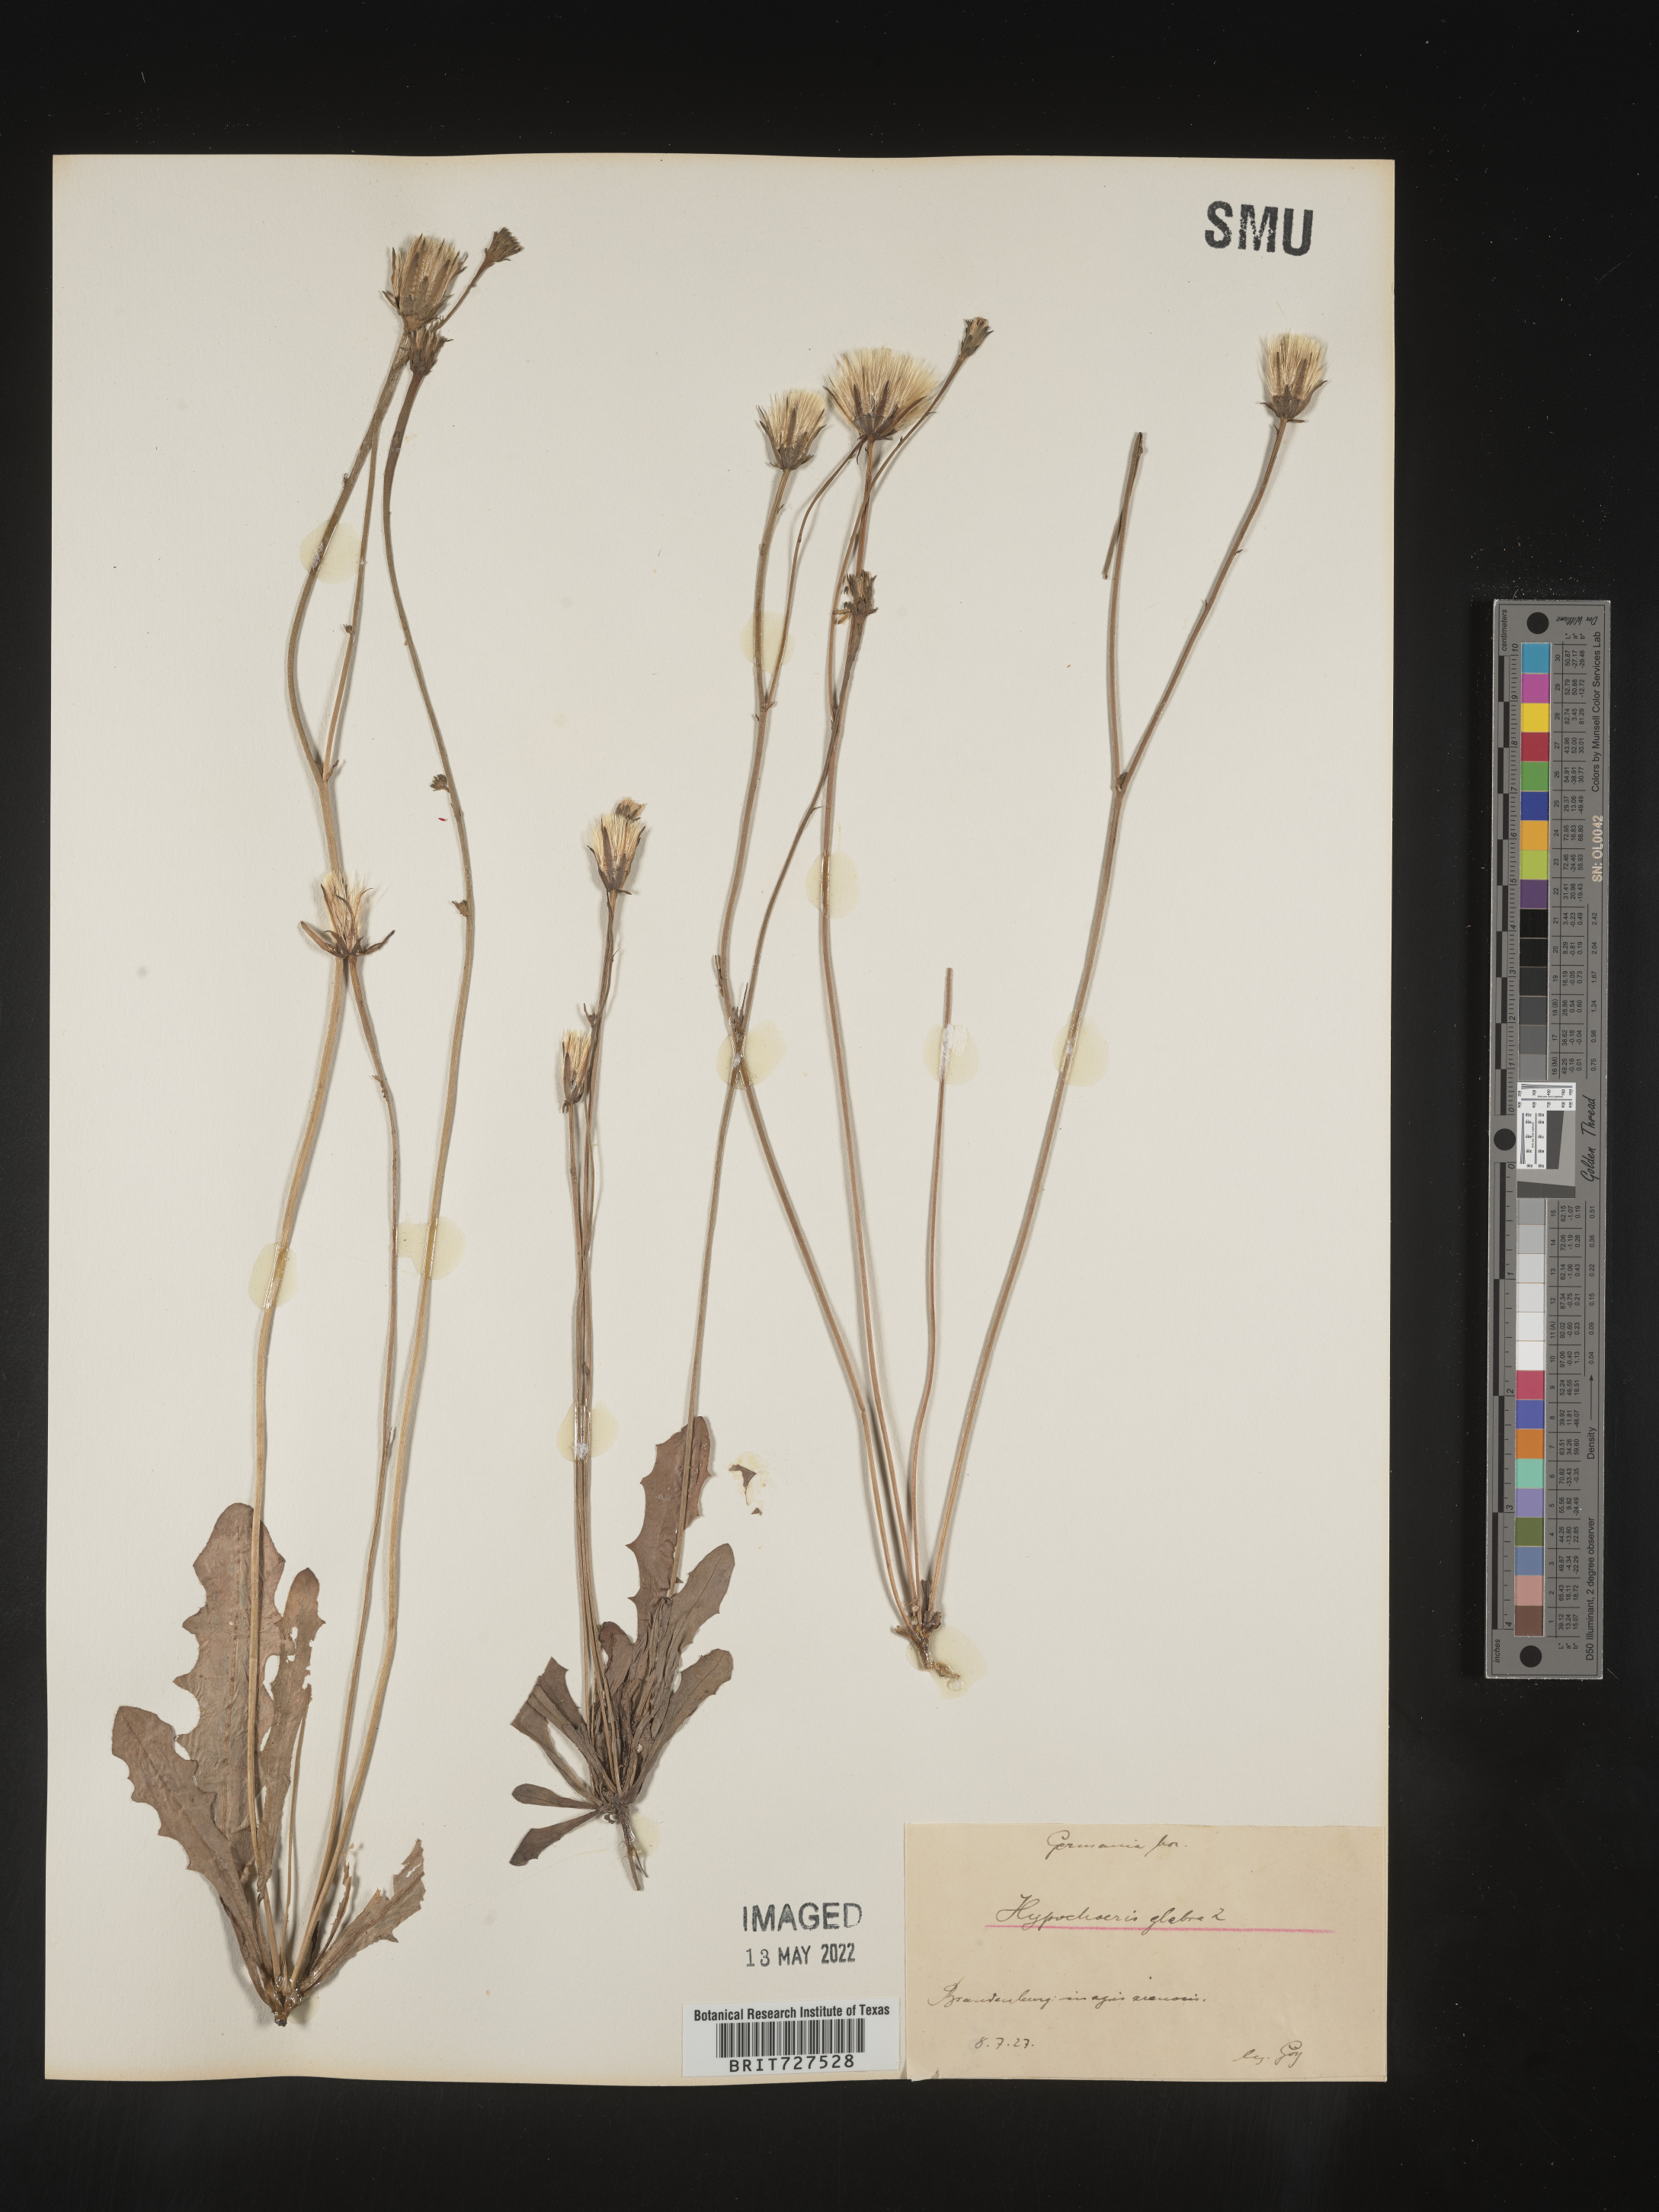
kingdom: Plantae
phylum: Tracheophyta
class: Magnoliopsida
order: Asterales
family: Asteraceae
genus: Hypochaeris
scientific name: Hypochaeris
